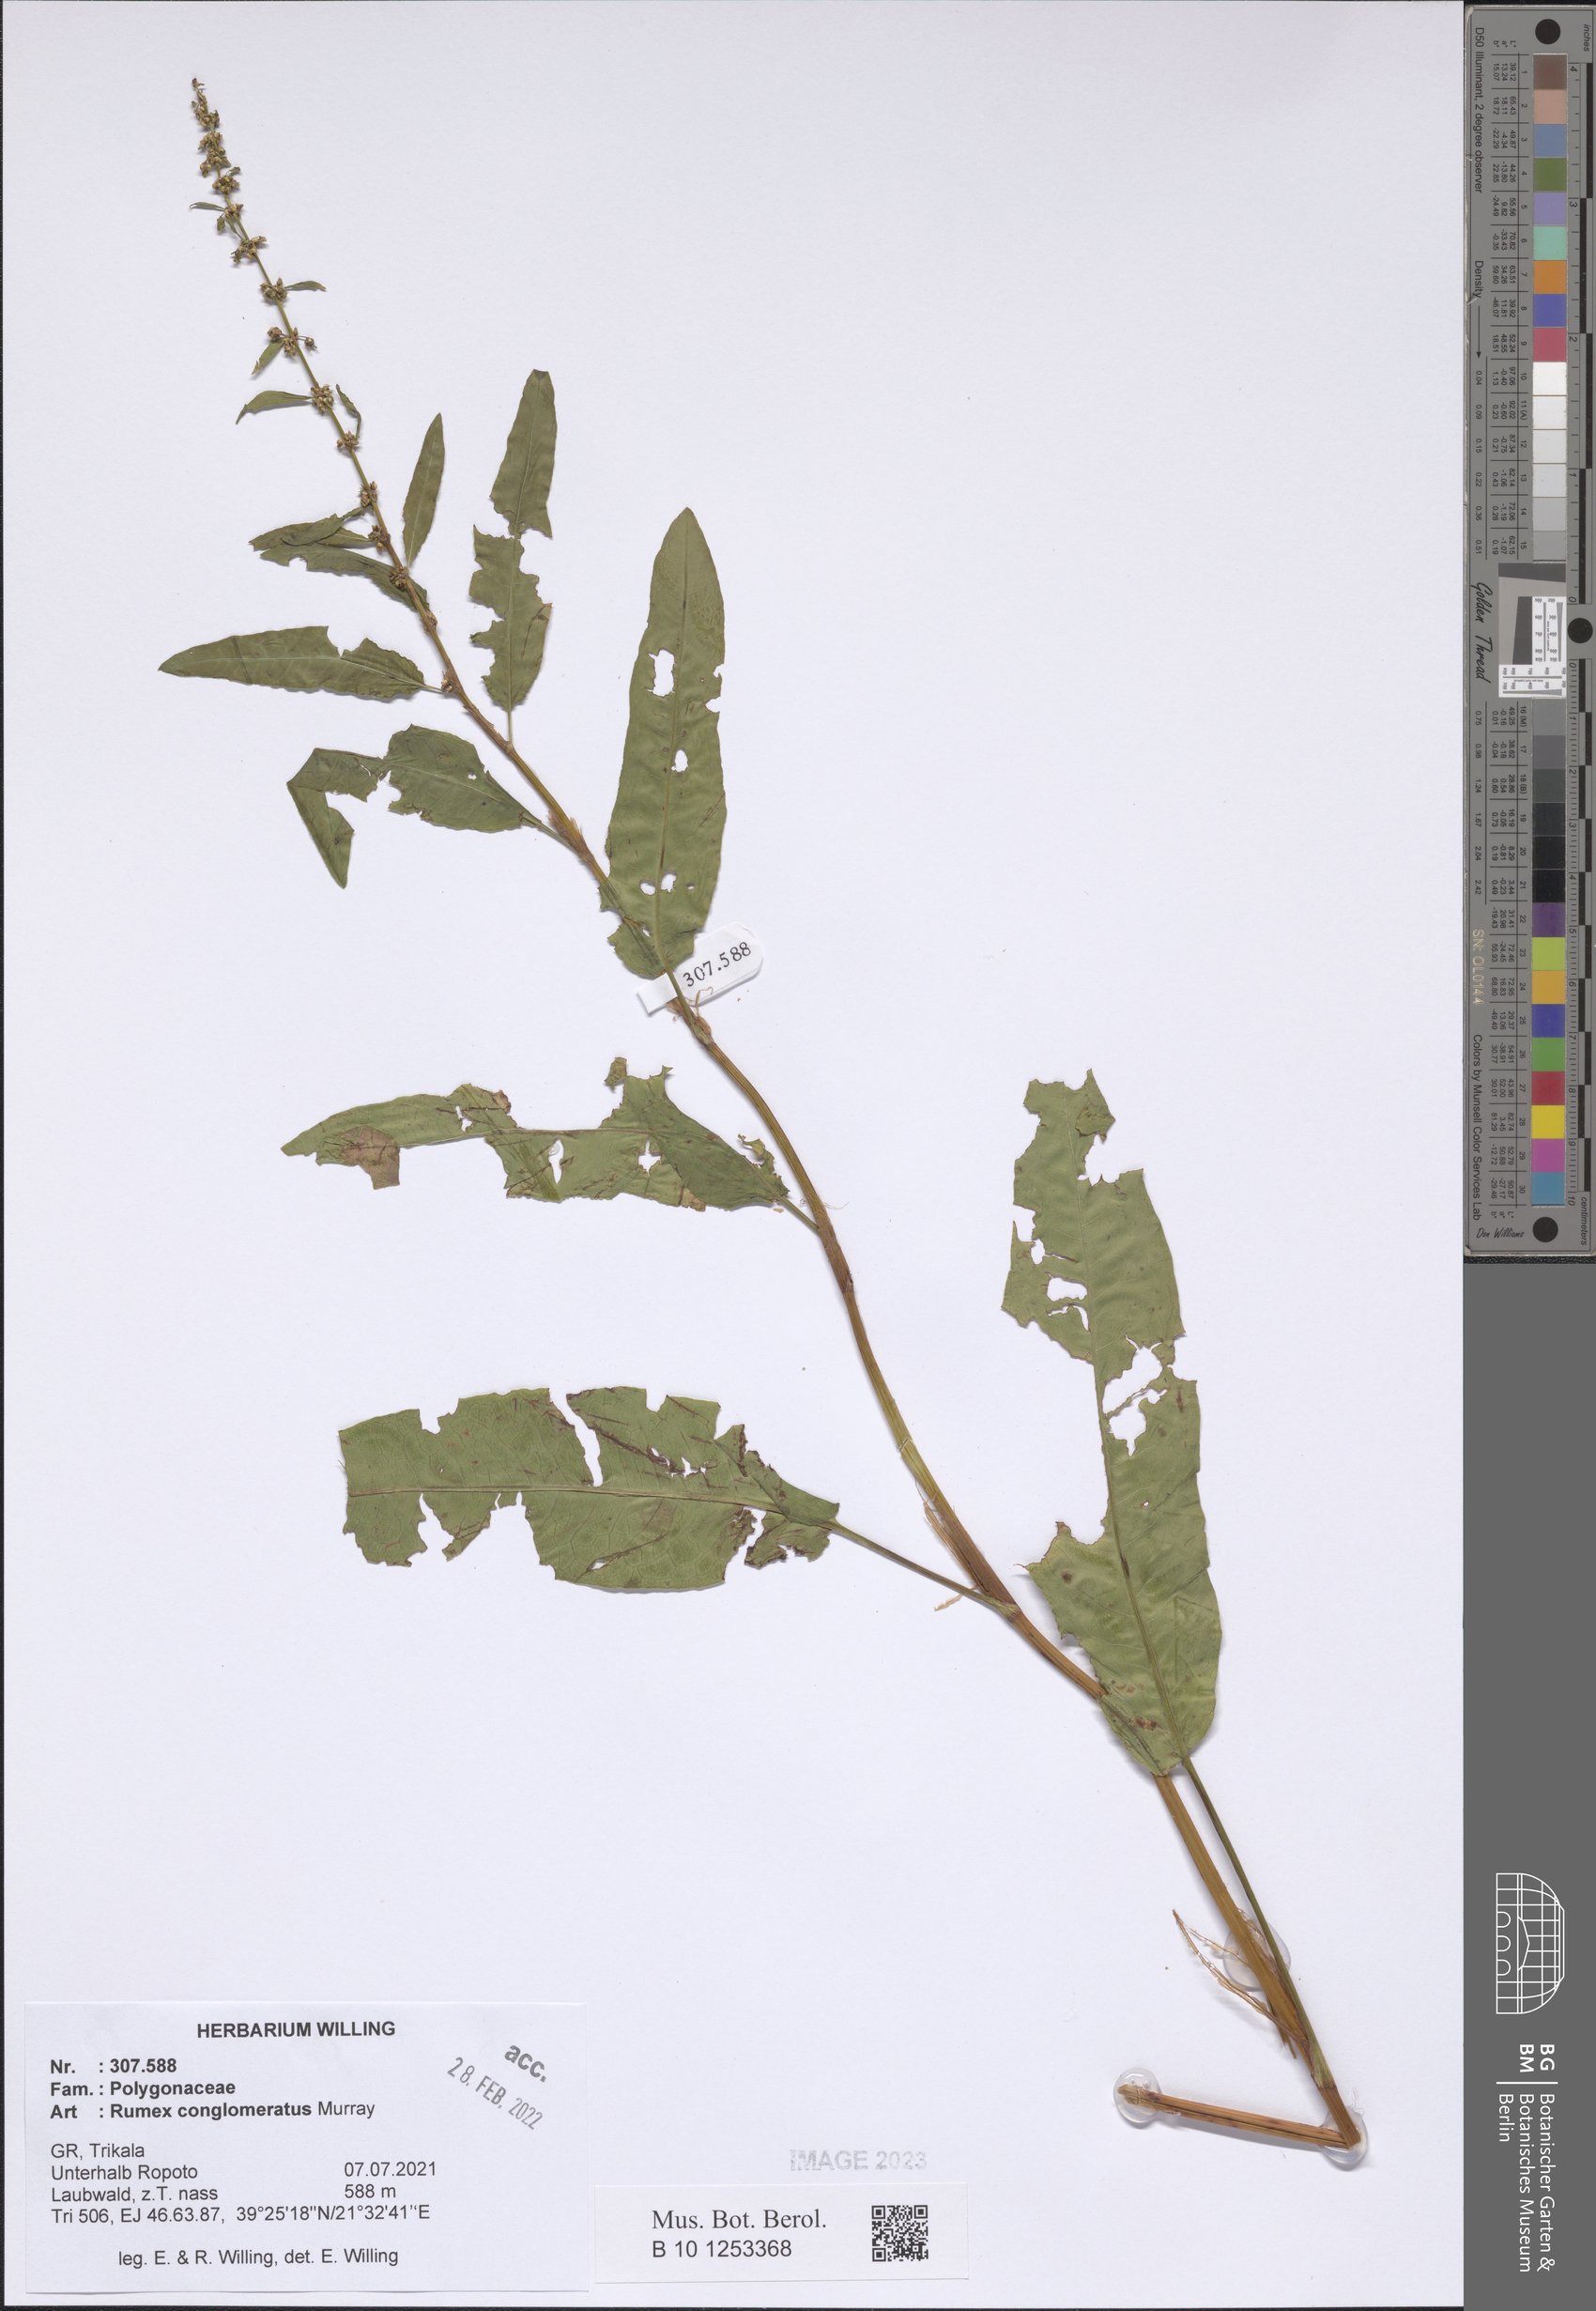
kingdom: Plantae
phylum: Tracheophyta
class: Magnoliopsida
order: Caryophyllales
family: Polygonaceae
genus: Rumex
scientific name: Rumex conglomeratus
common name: Clustered dock
